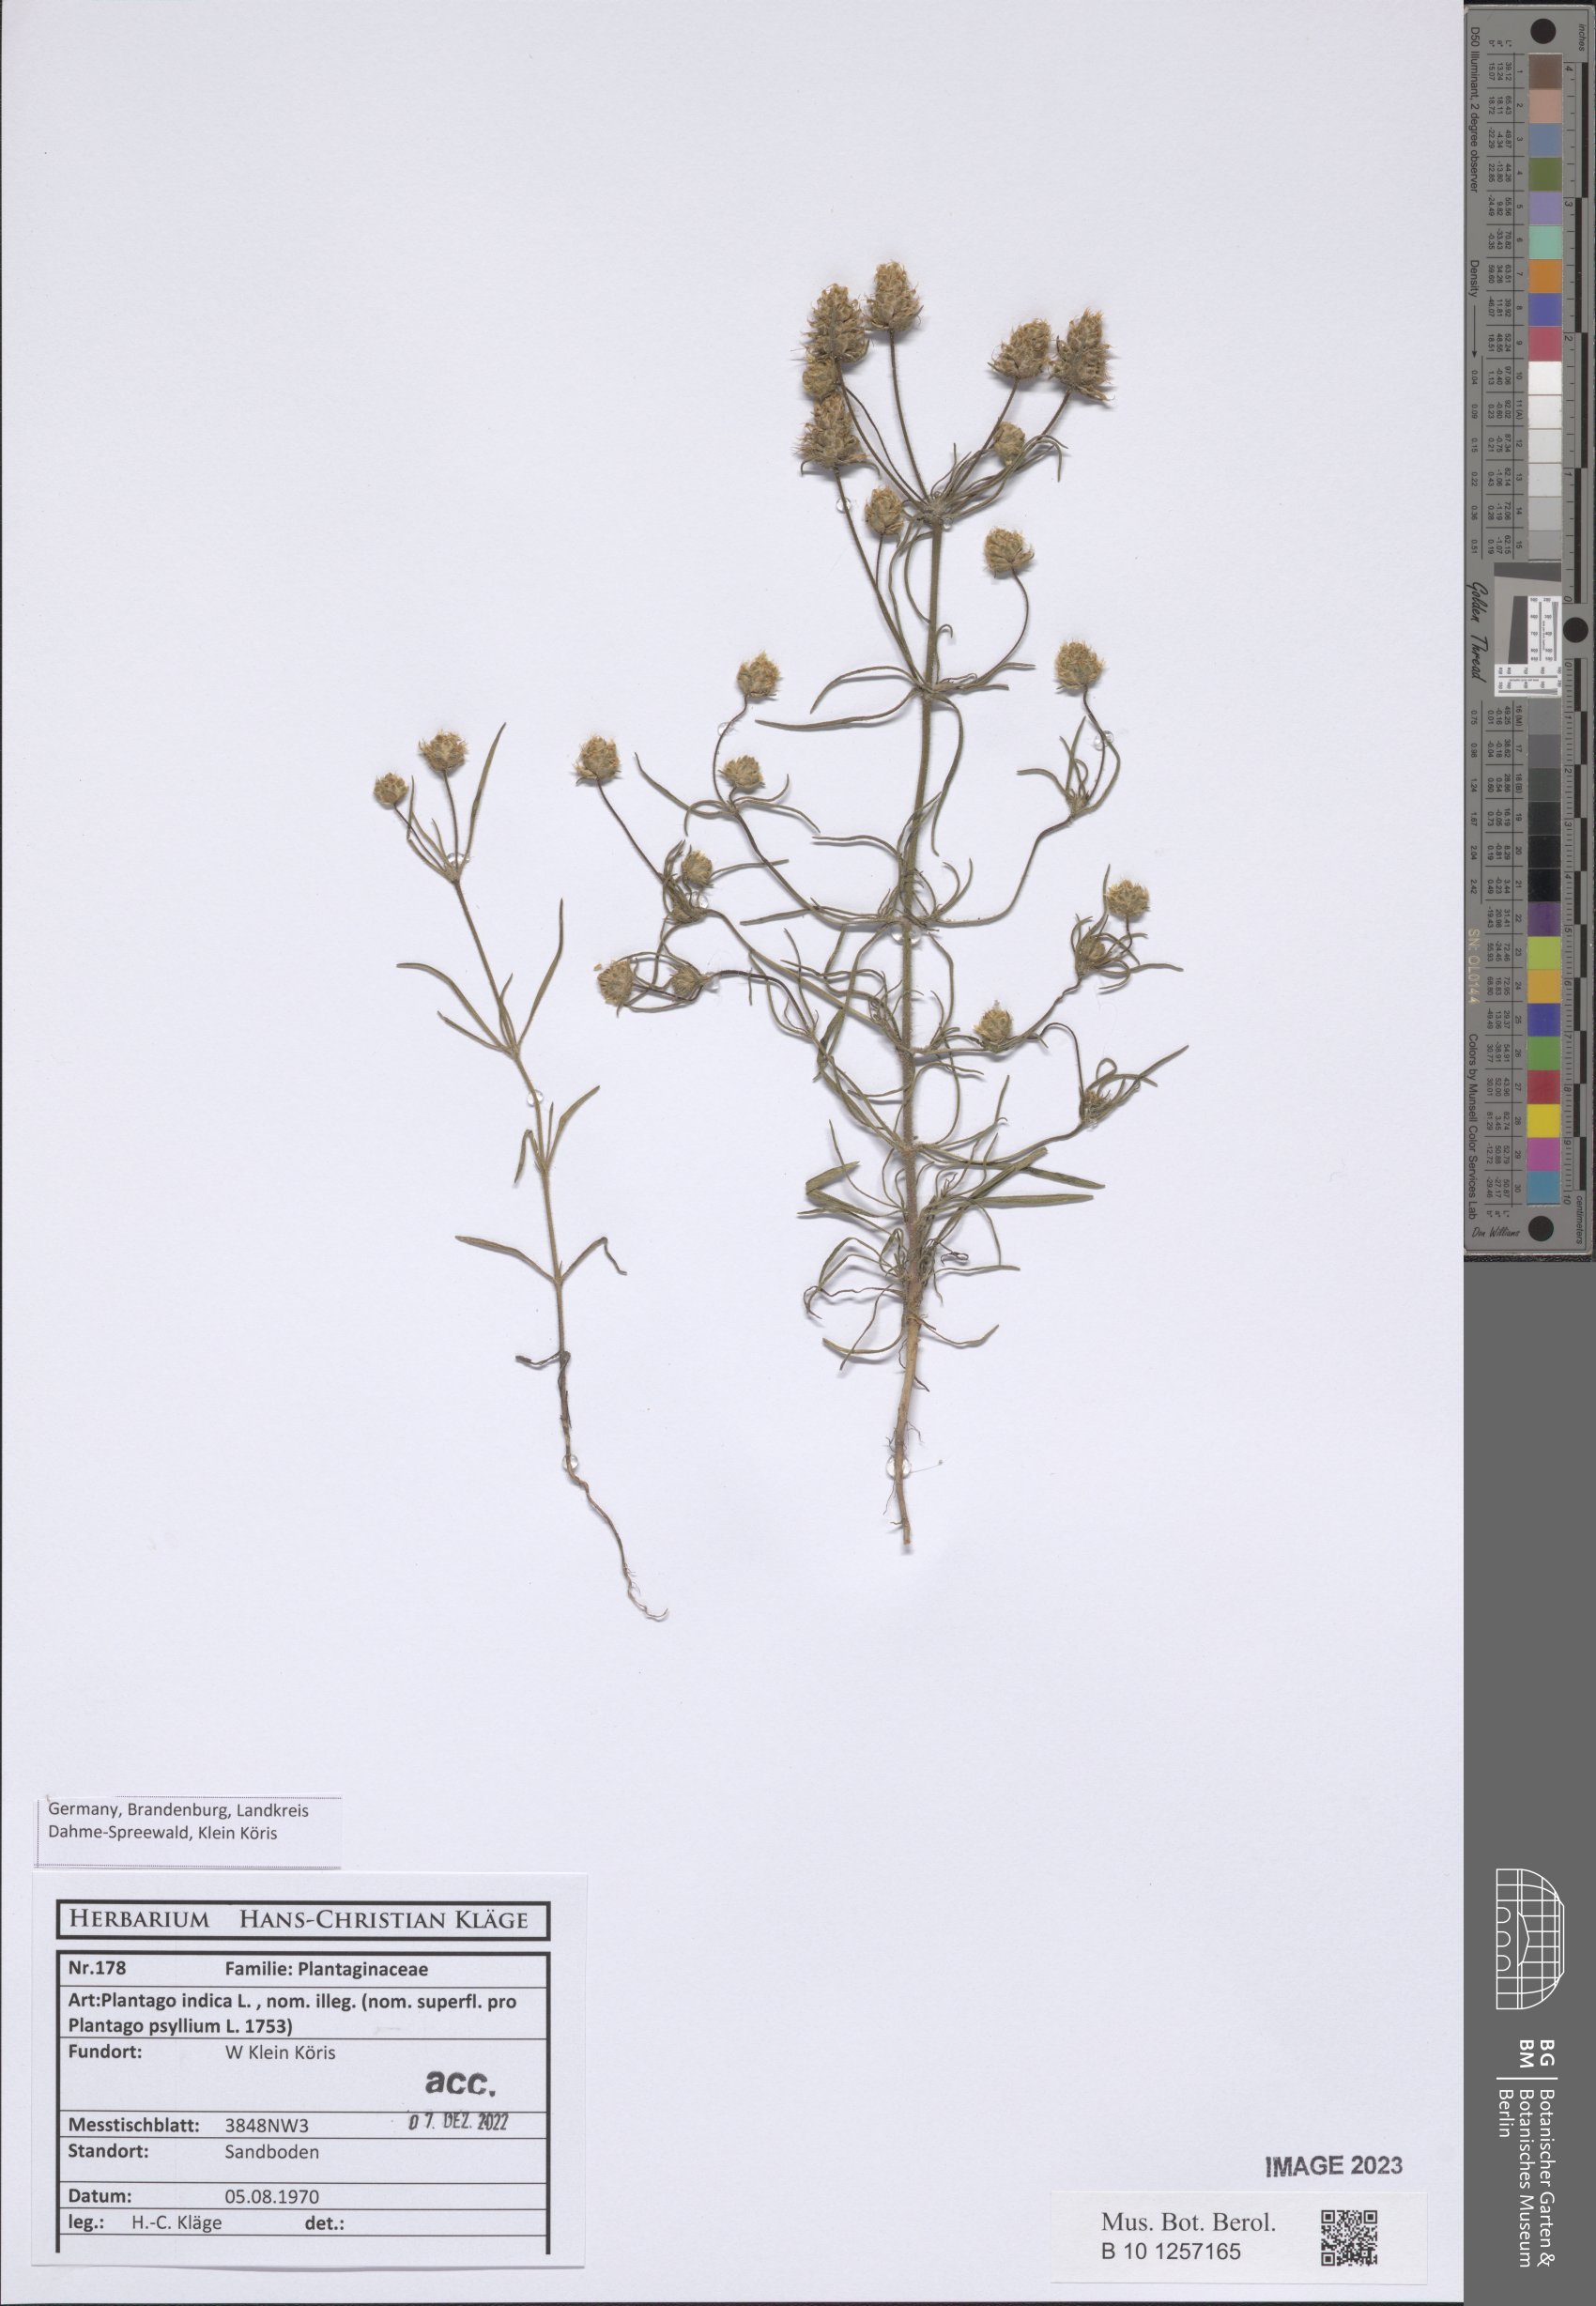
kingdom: Plantae
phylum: Tracheophyta
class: Magnoliopsida
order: Lamiales
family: Plantaginaceae
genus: Plantago
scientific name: Plantago arenaria
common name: Branched plantain
